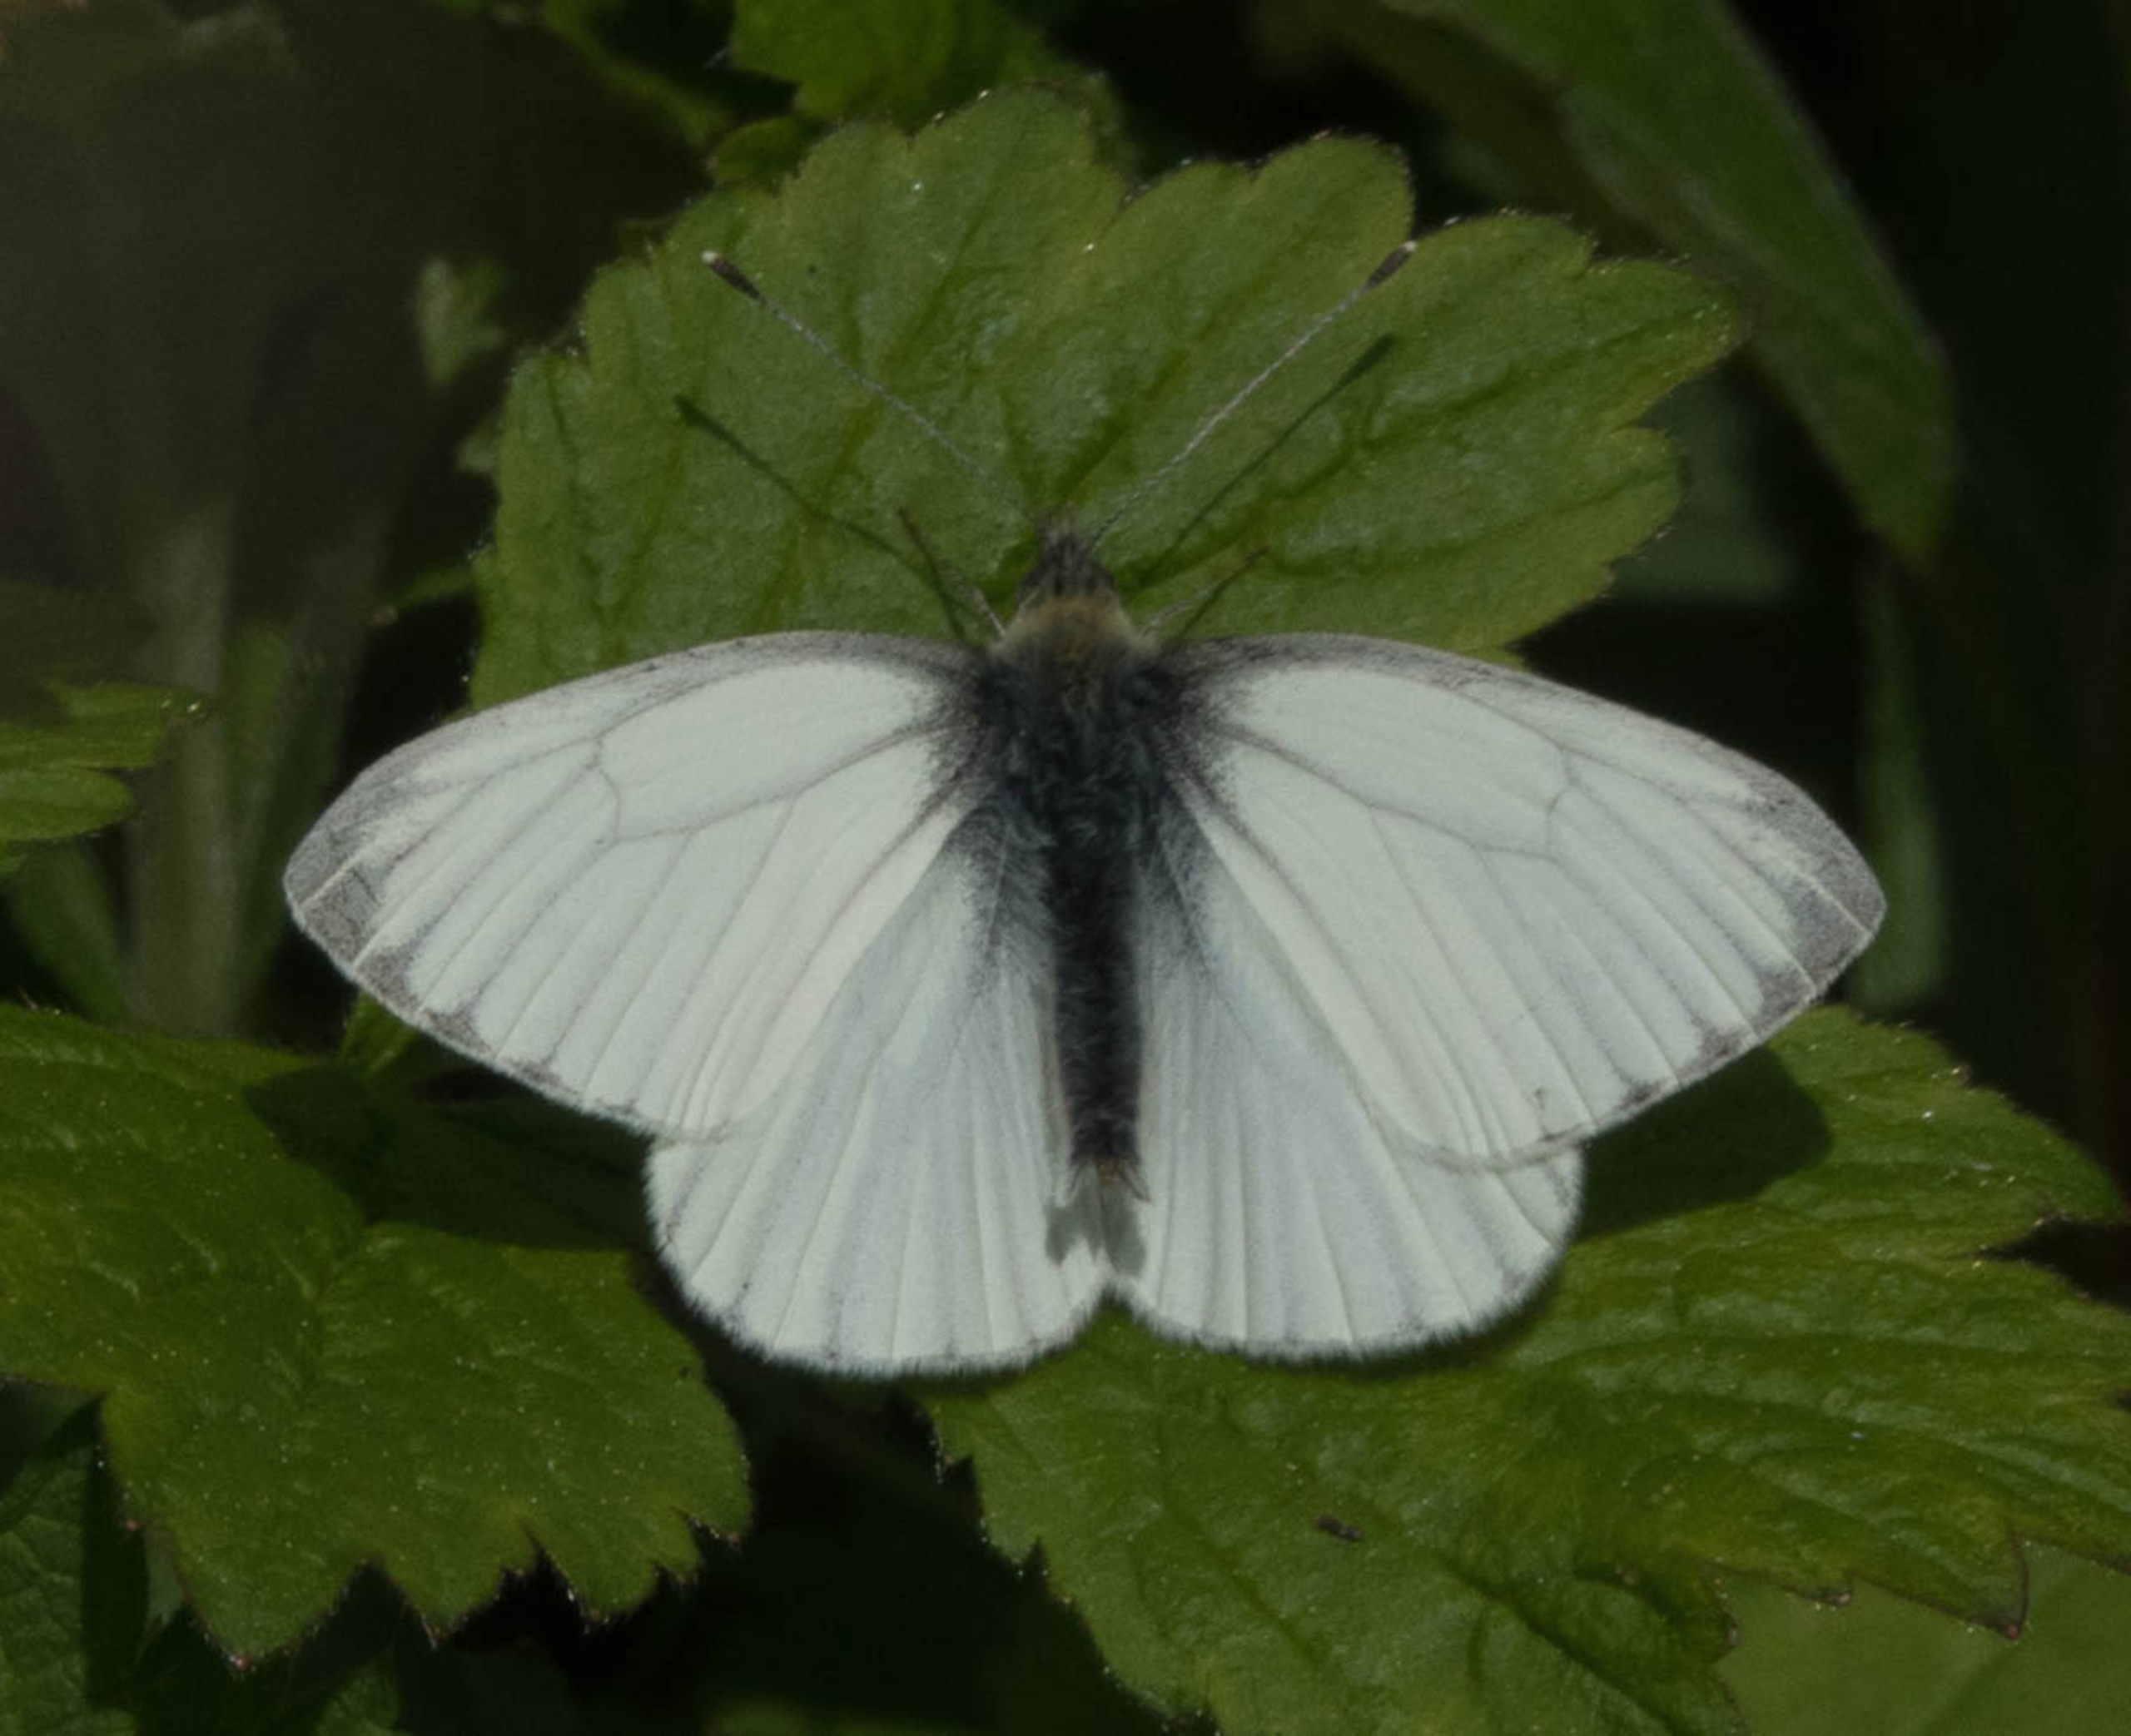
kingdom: Animalia
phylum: Arthropoda
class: Insecta
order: Lepidoptera
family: Pieridae
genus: Pieris
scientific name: Pieris napi
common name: Grønåret kålsommerfugl
